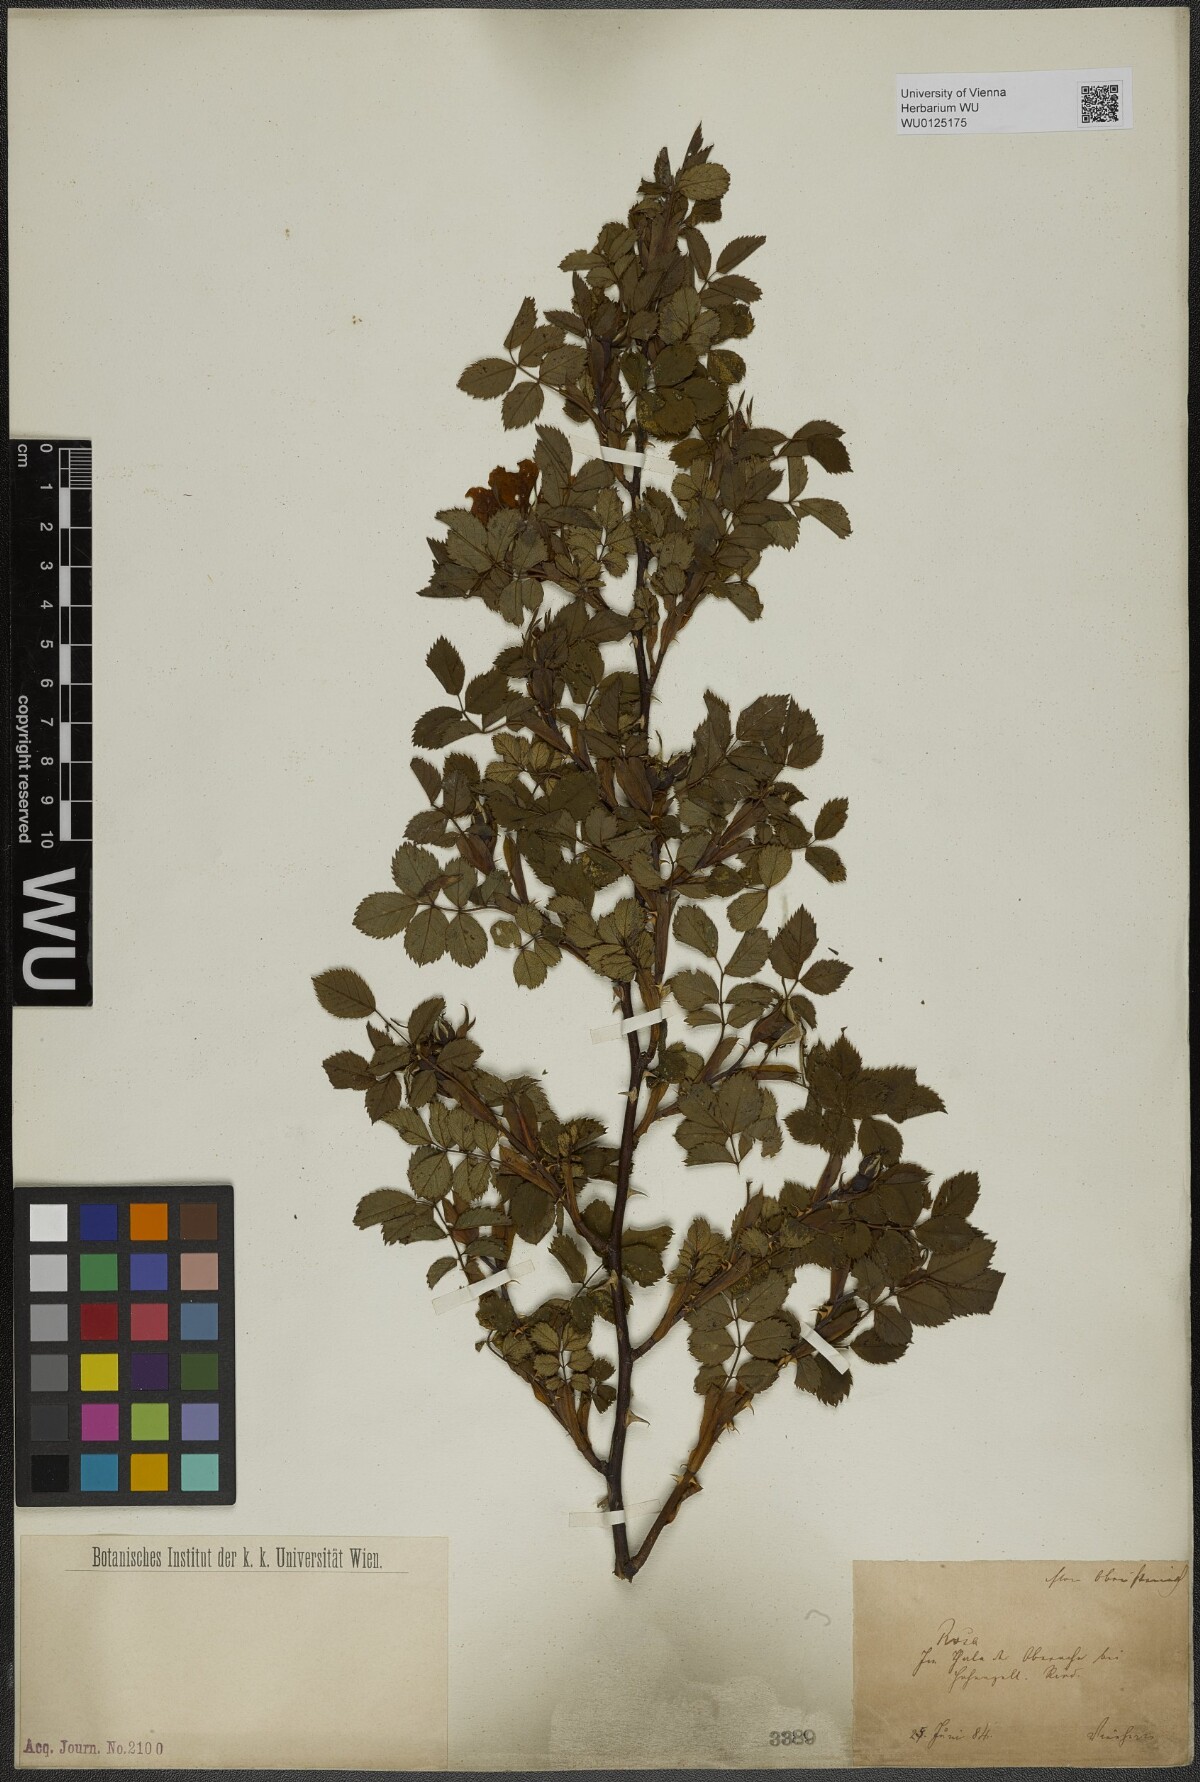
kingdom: Plantae
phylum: Tracheophyta
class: Magnoliopsida
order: Rosales
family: Rosaceae
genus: Rosa
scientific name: Rosa
